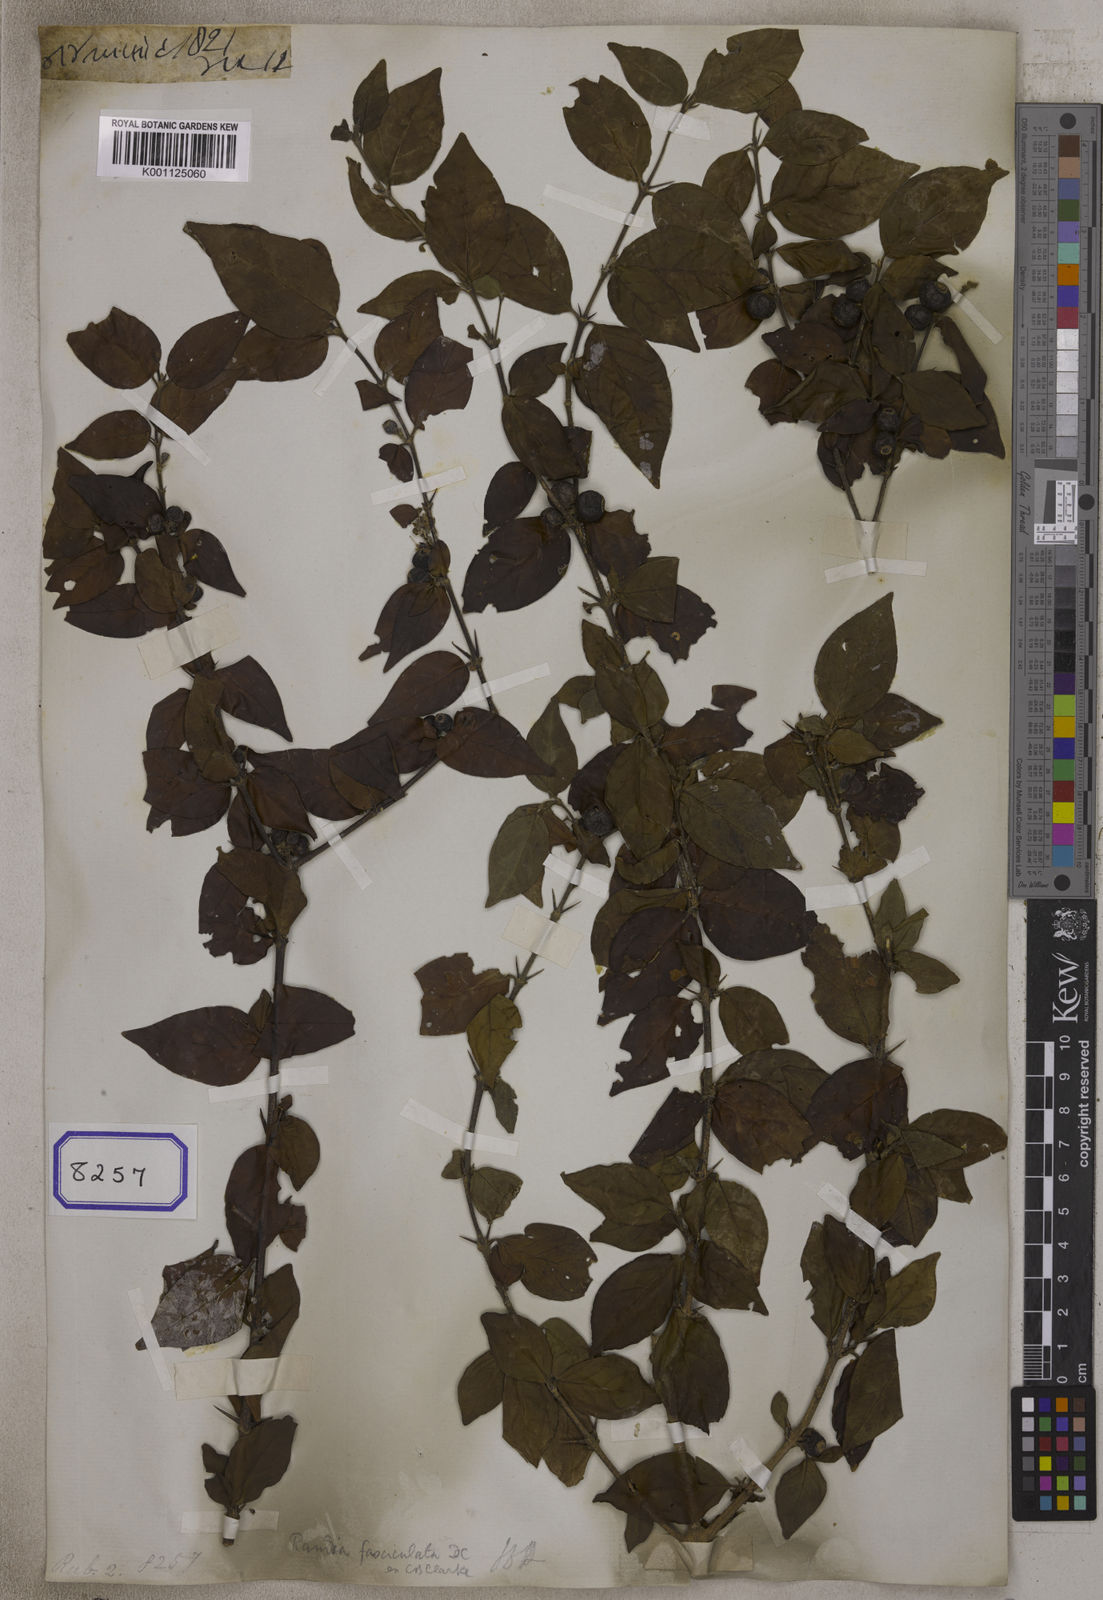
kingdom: Plantae
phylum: Tracheophyta
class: Magnoliopsida
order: Gentianales
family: Rubiaceae
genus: Himalrandia
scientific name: Himalrandia tetrasperma
